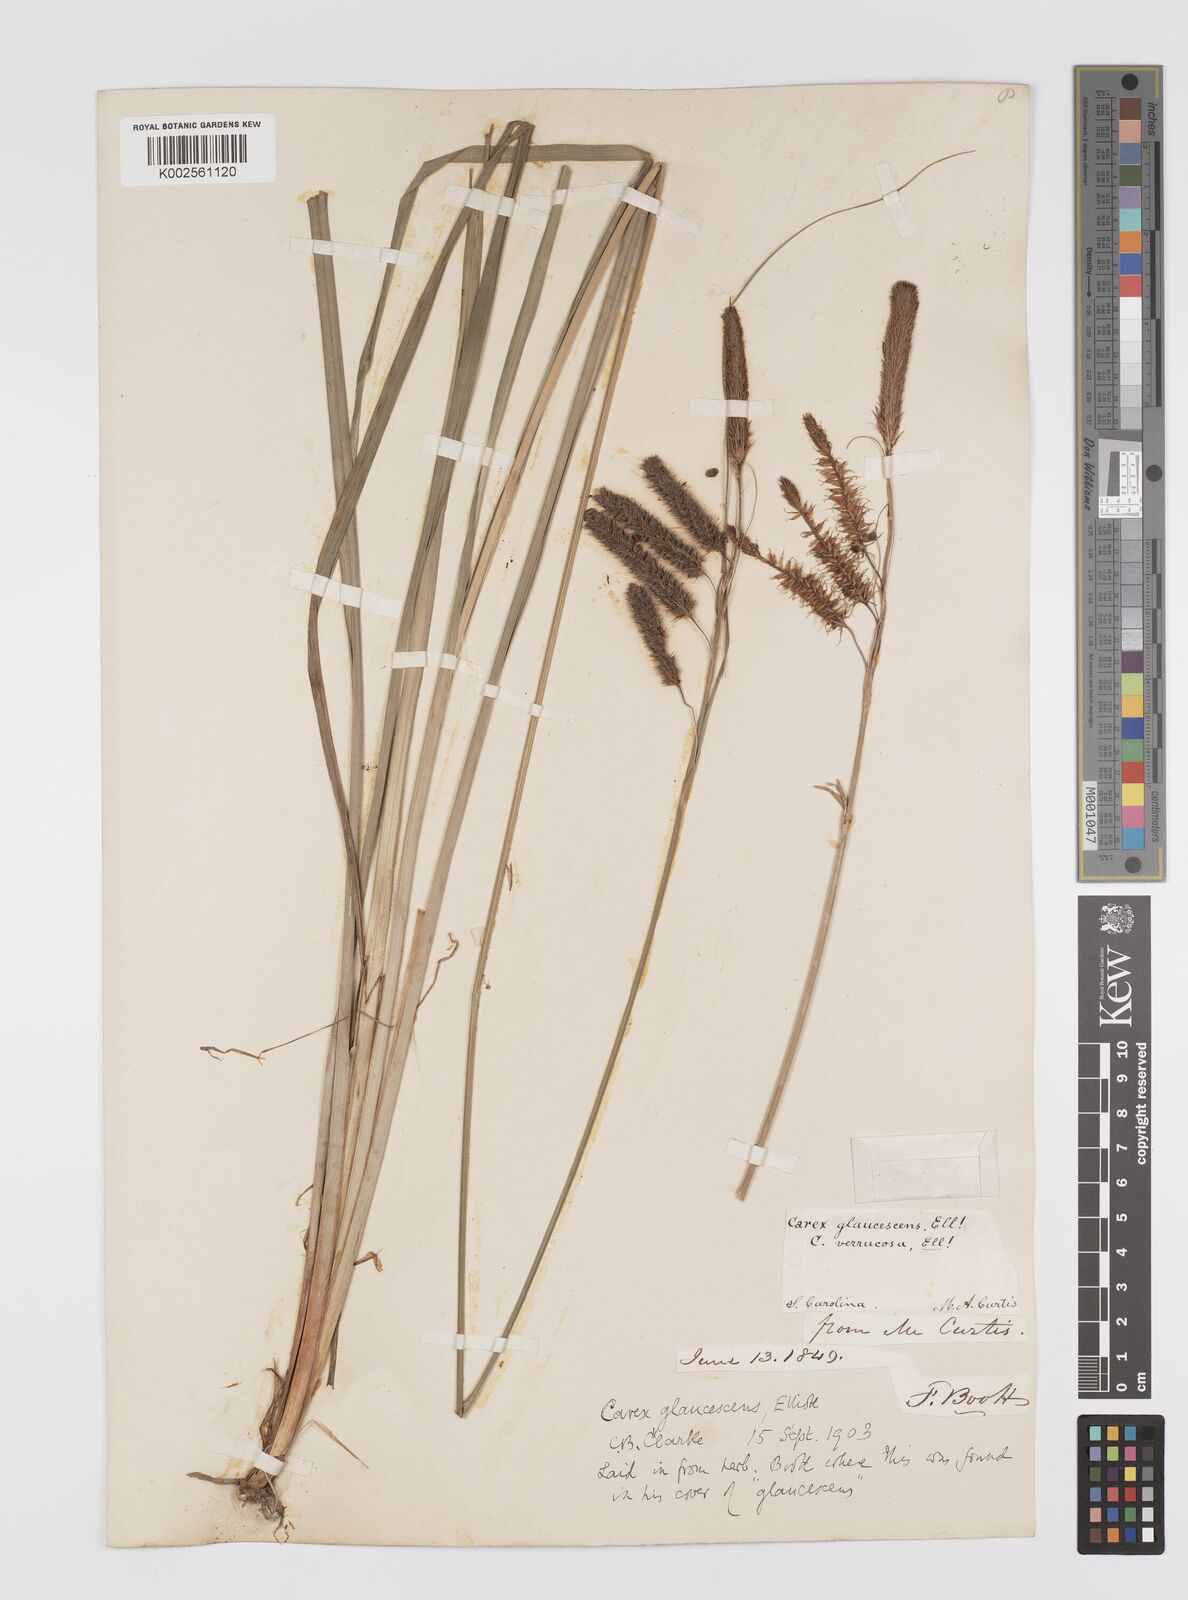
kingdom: Plantae
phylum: Tracheophyta
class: Liliopsida
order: Poales
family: Cyperaceae
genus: Carex
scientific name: Carex glaucescens
